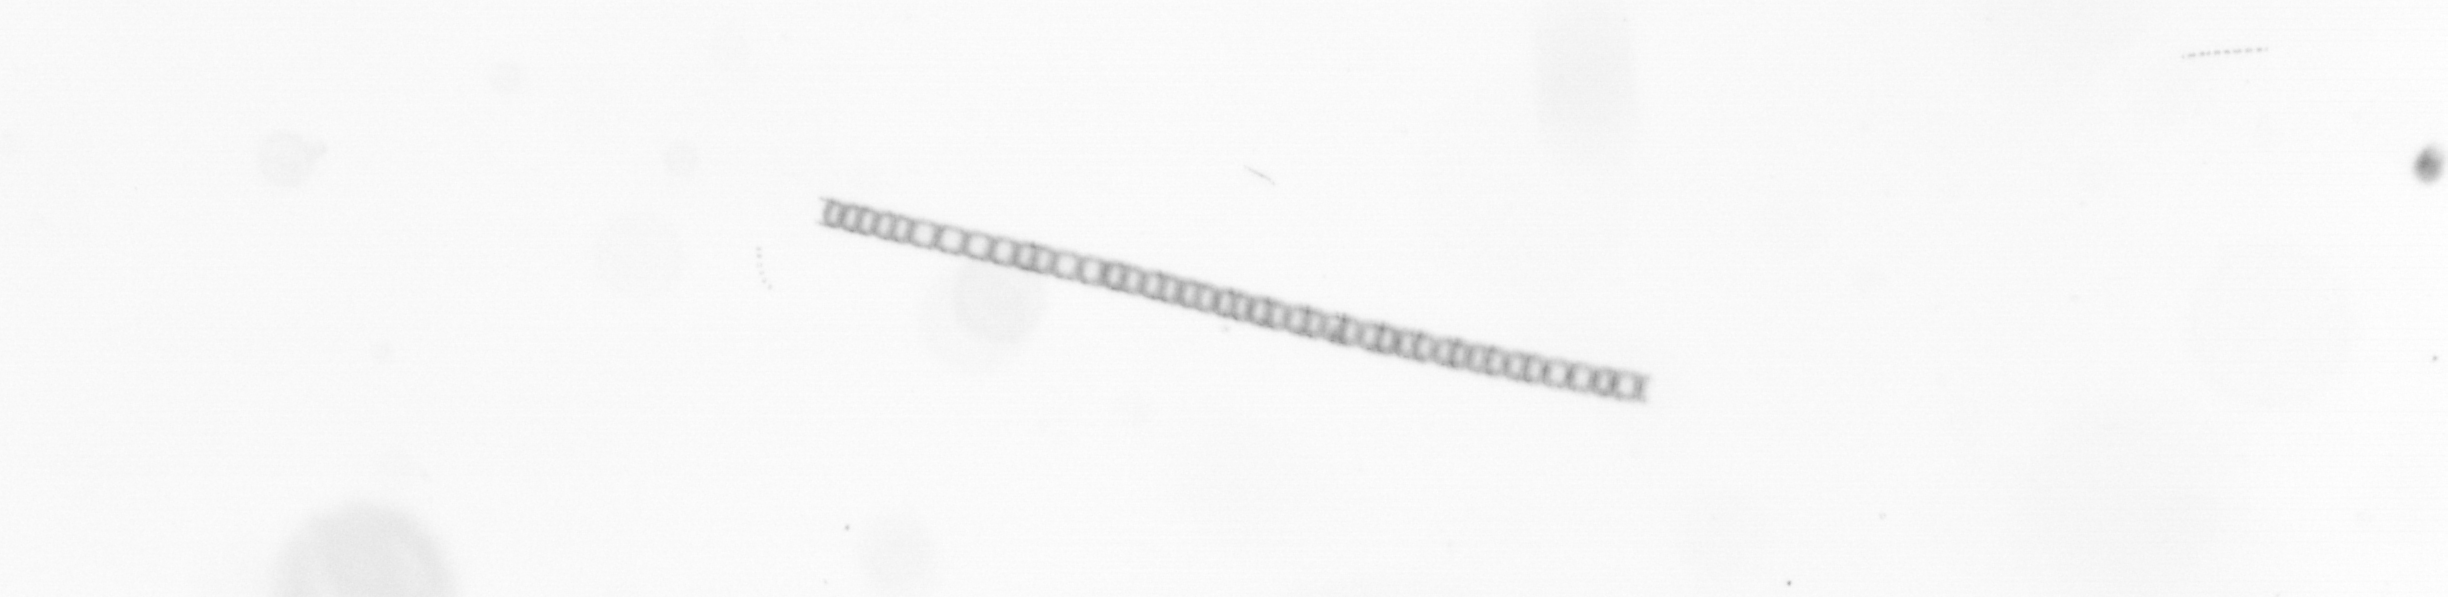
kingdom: Chromista
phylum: Ochrophyta
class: Bacillariophyceae
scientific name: Bacillariophyceae
